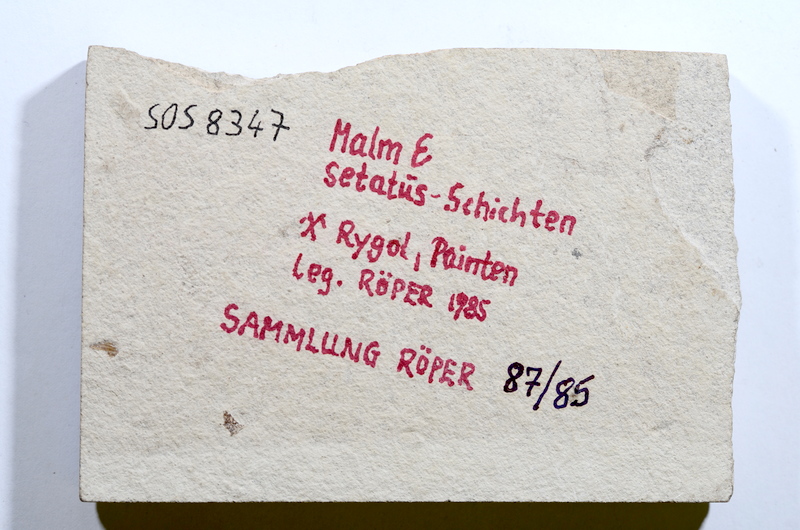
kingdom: Animalia
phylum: Chordata
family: Ascalaboidae
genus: Tharsis
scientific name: Tharsis
